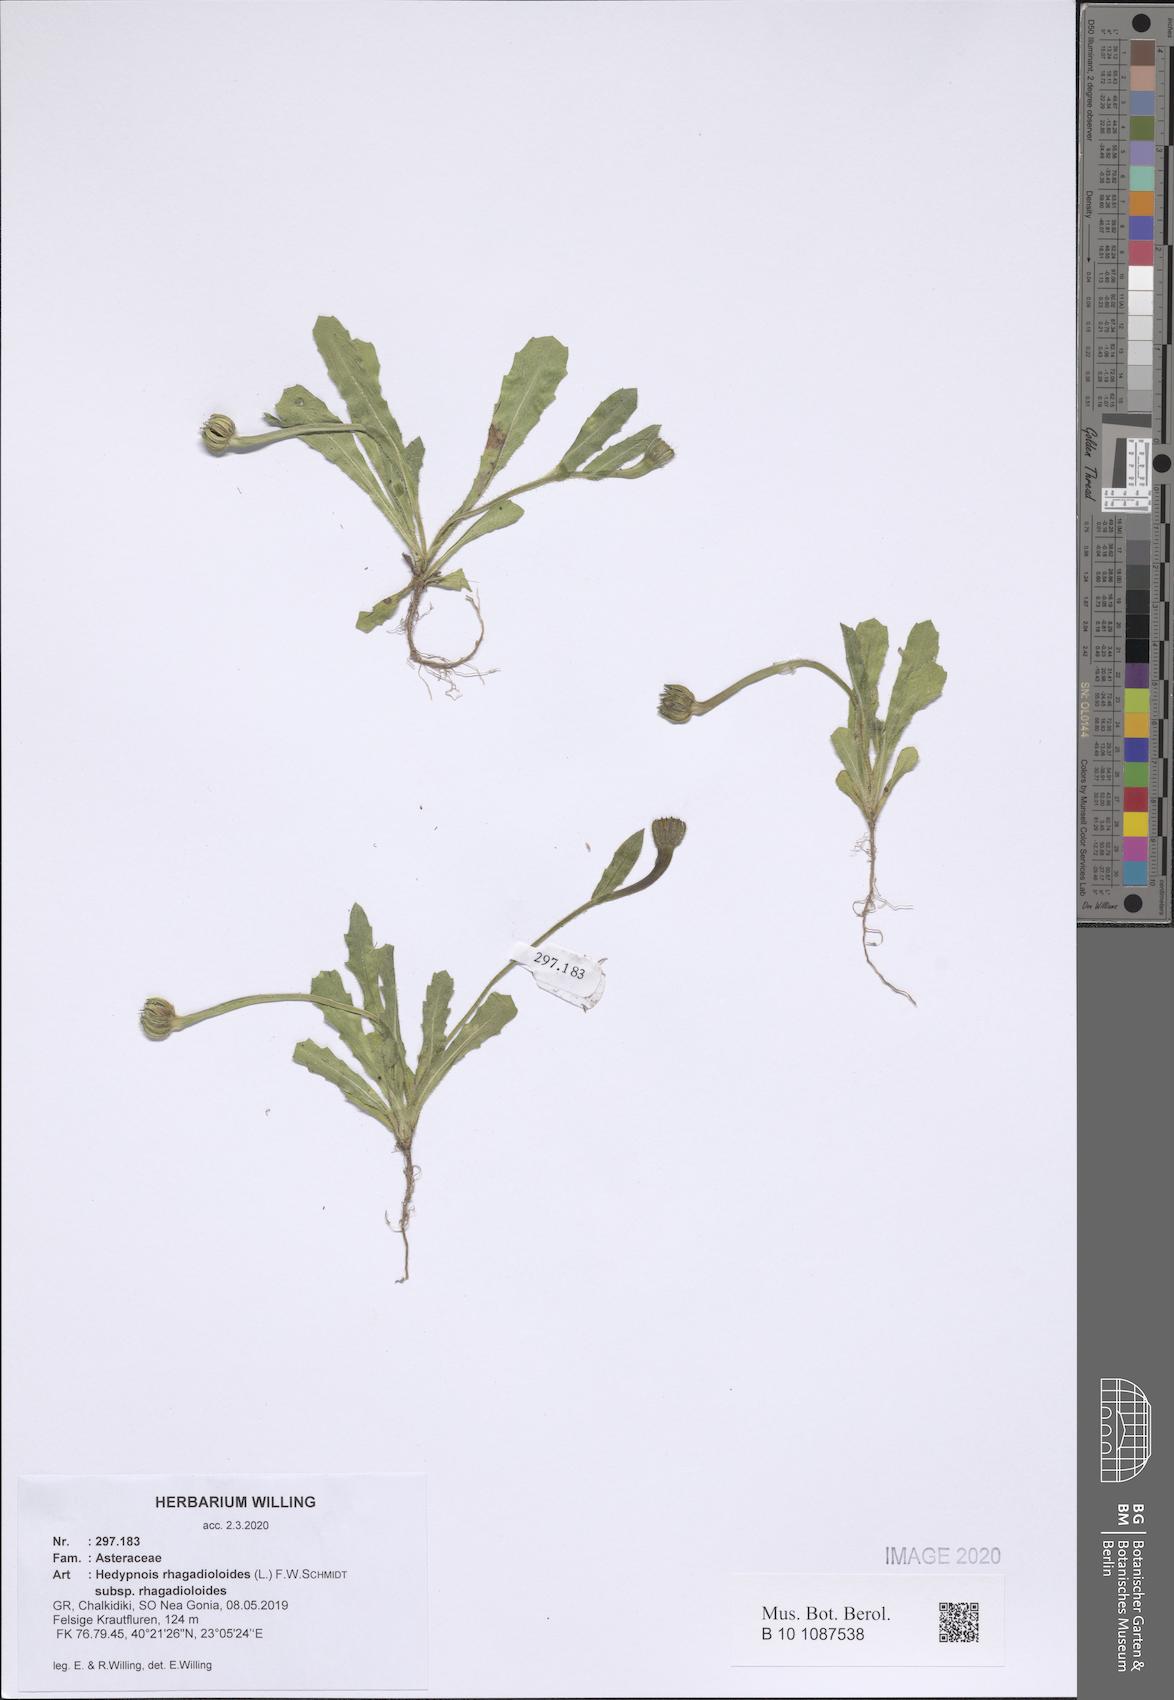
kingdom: Plantae
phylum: Tracheophyta
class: Magnoliopsida
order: Asterales
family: Asteraceae
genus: Hedypnois
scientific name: Hedypnois rhagadioloides
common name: Cretan weed
